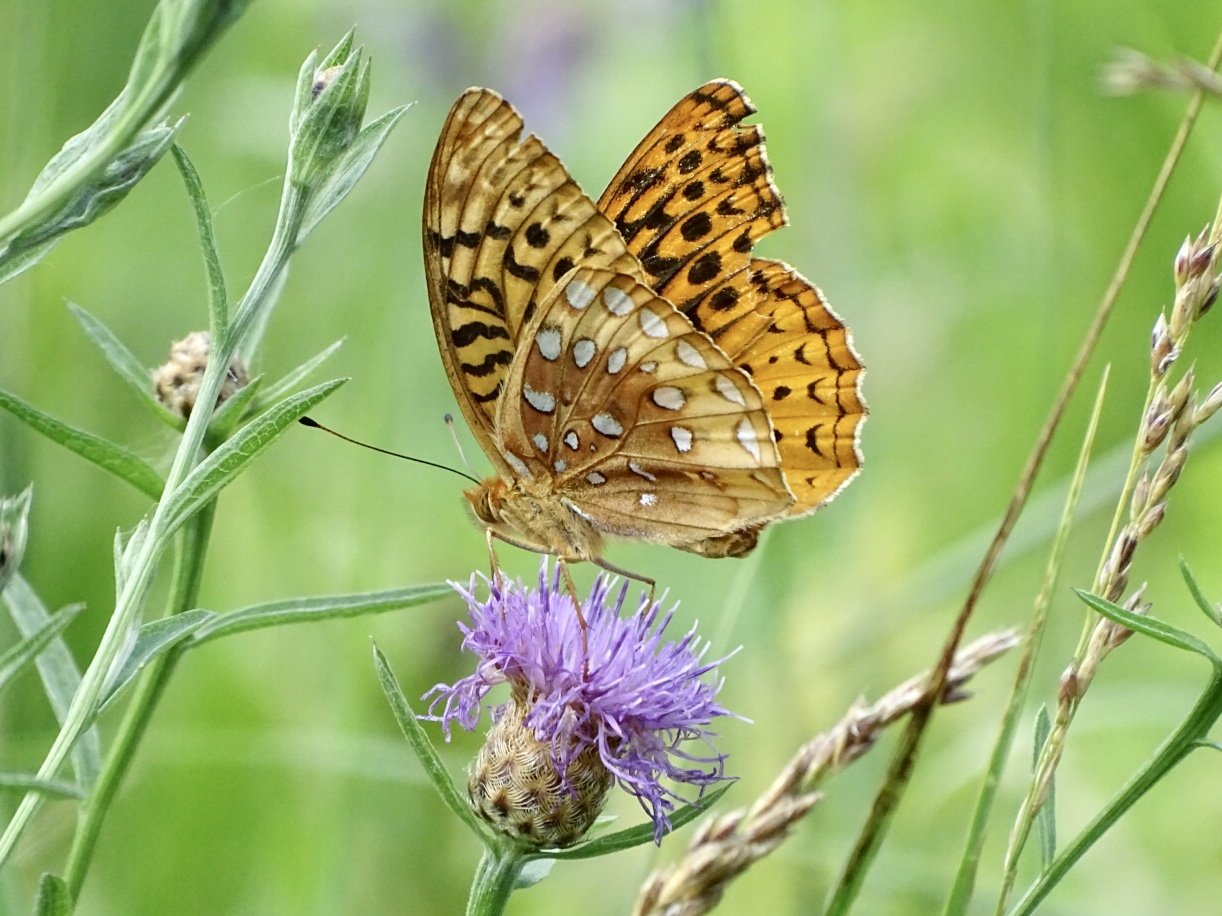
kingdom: Animalia
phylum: Arthropoda
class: Insecta
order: Lepidoptera
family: Nymphalidae
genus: Speyeria
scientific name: Speyeria cybele
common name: Great Spangled Fritillary
